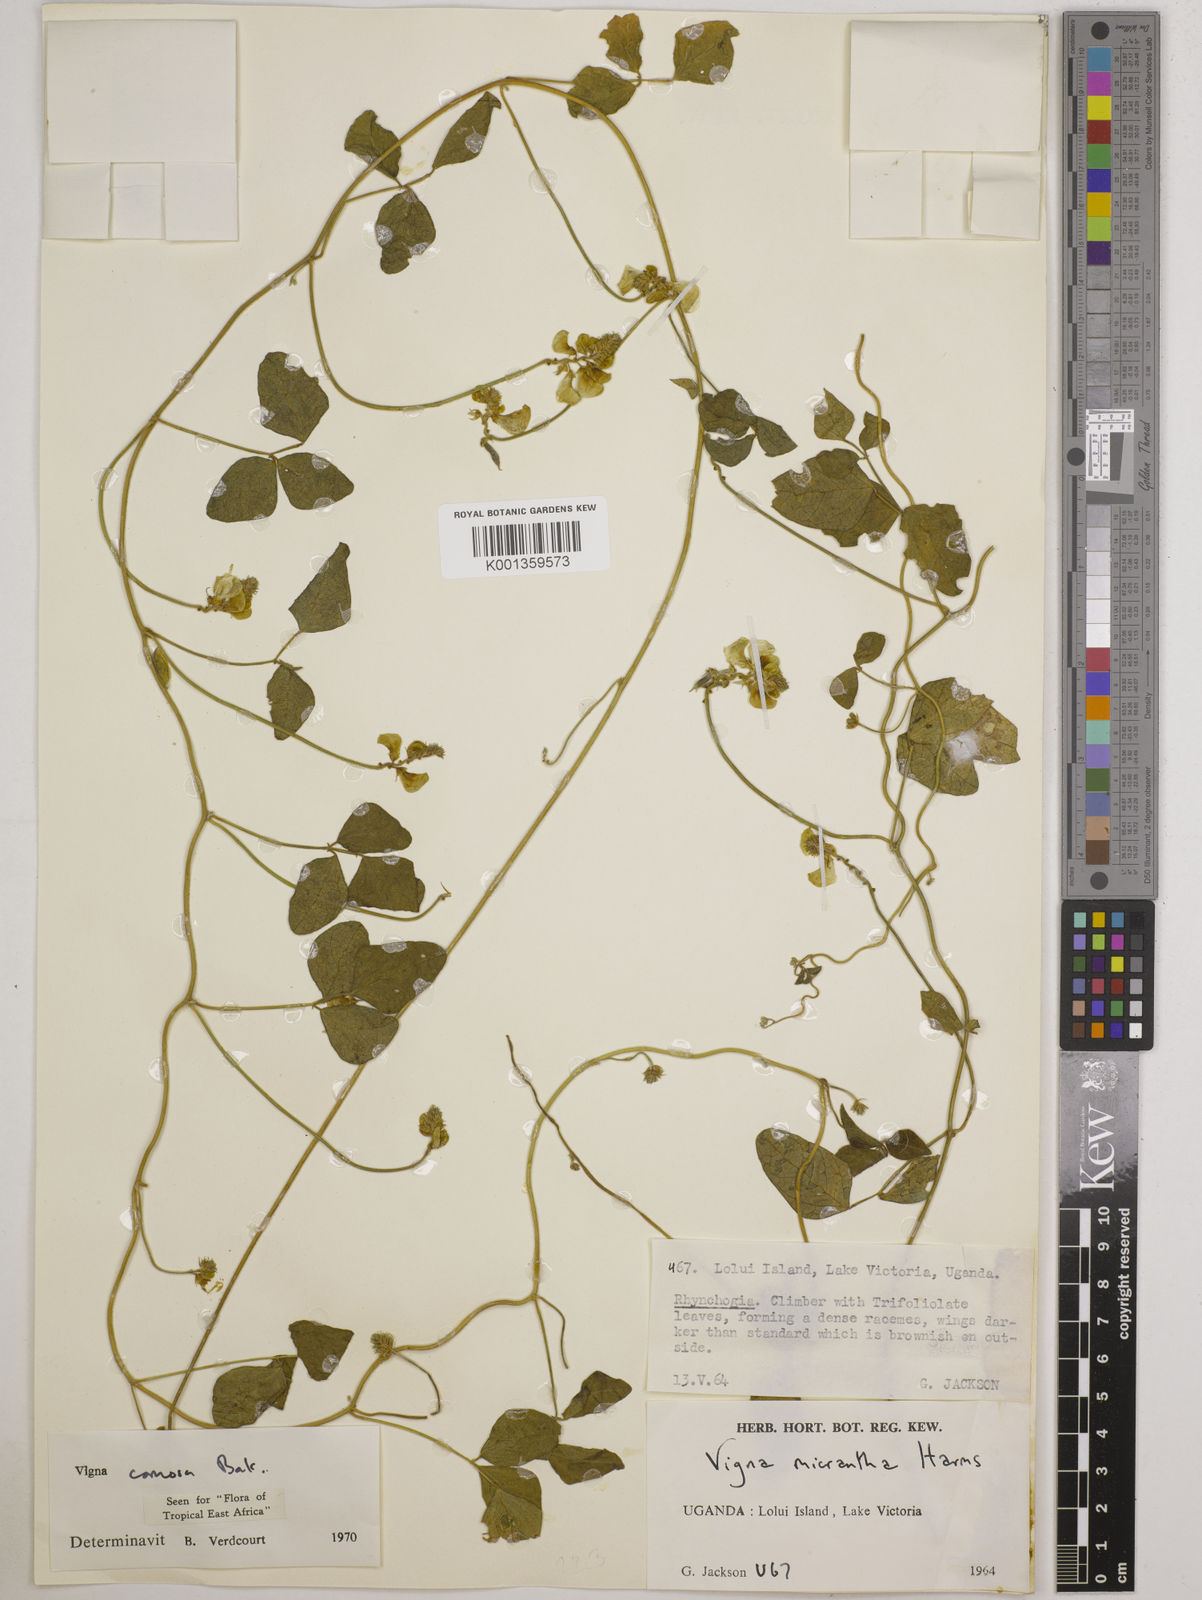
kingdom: Plantae
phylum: Tracheophyta
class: Magnoliopsida
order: Fabales
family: Fabaceae
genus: Vigna
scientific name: Vigna comosa
